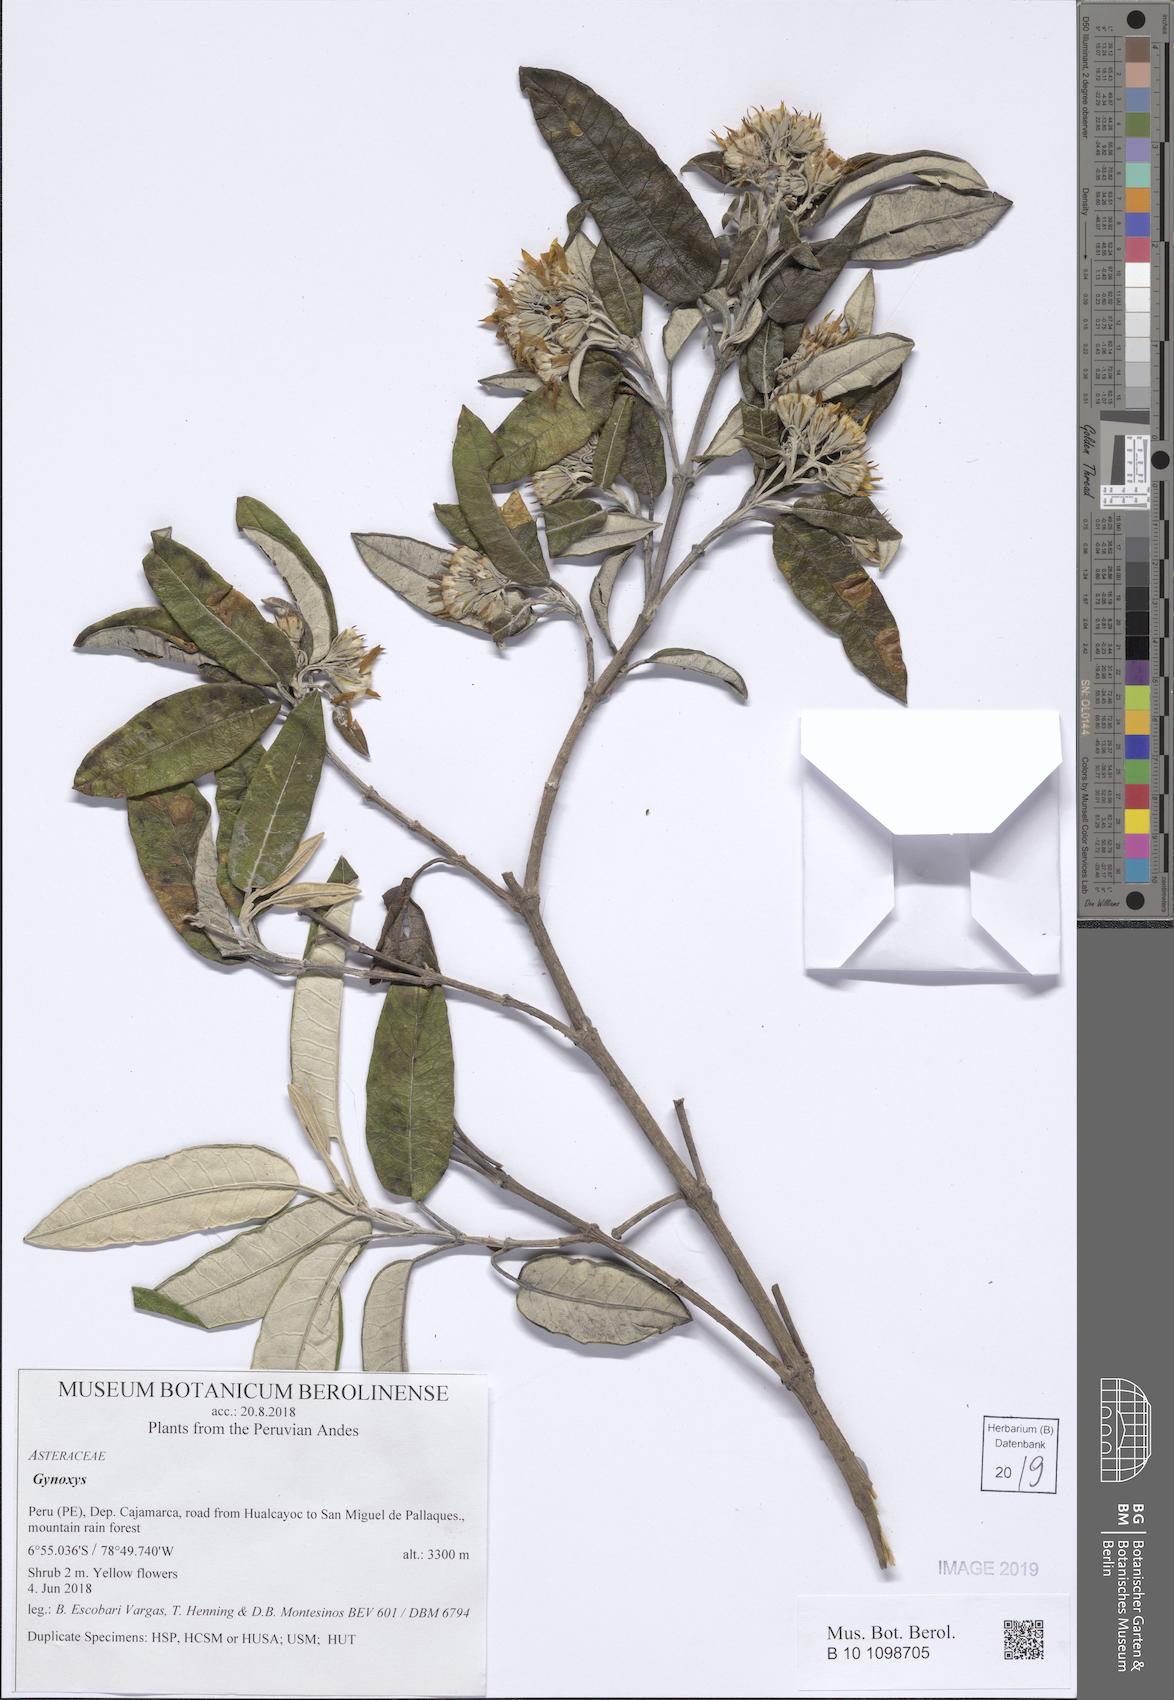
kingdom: Plantae
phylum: Tracheophyta
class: Magnoliopsida
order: Asterales
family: Asteraceae
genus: Gynoxys
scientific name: Gynoxys
